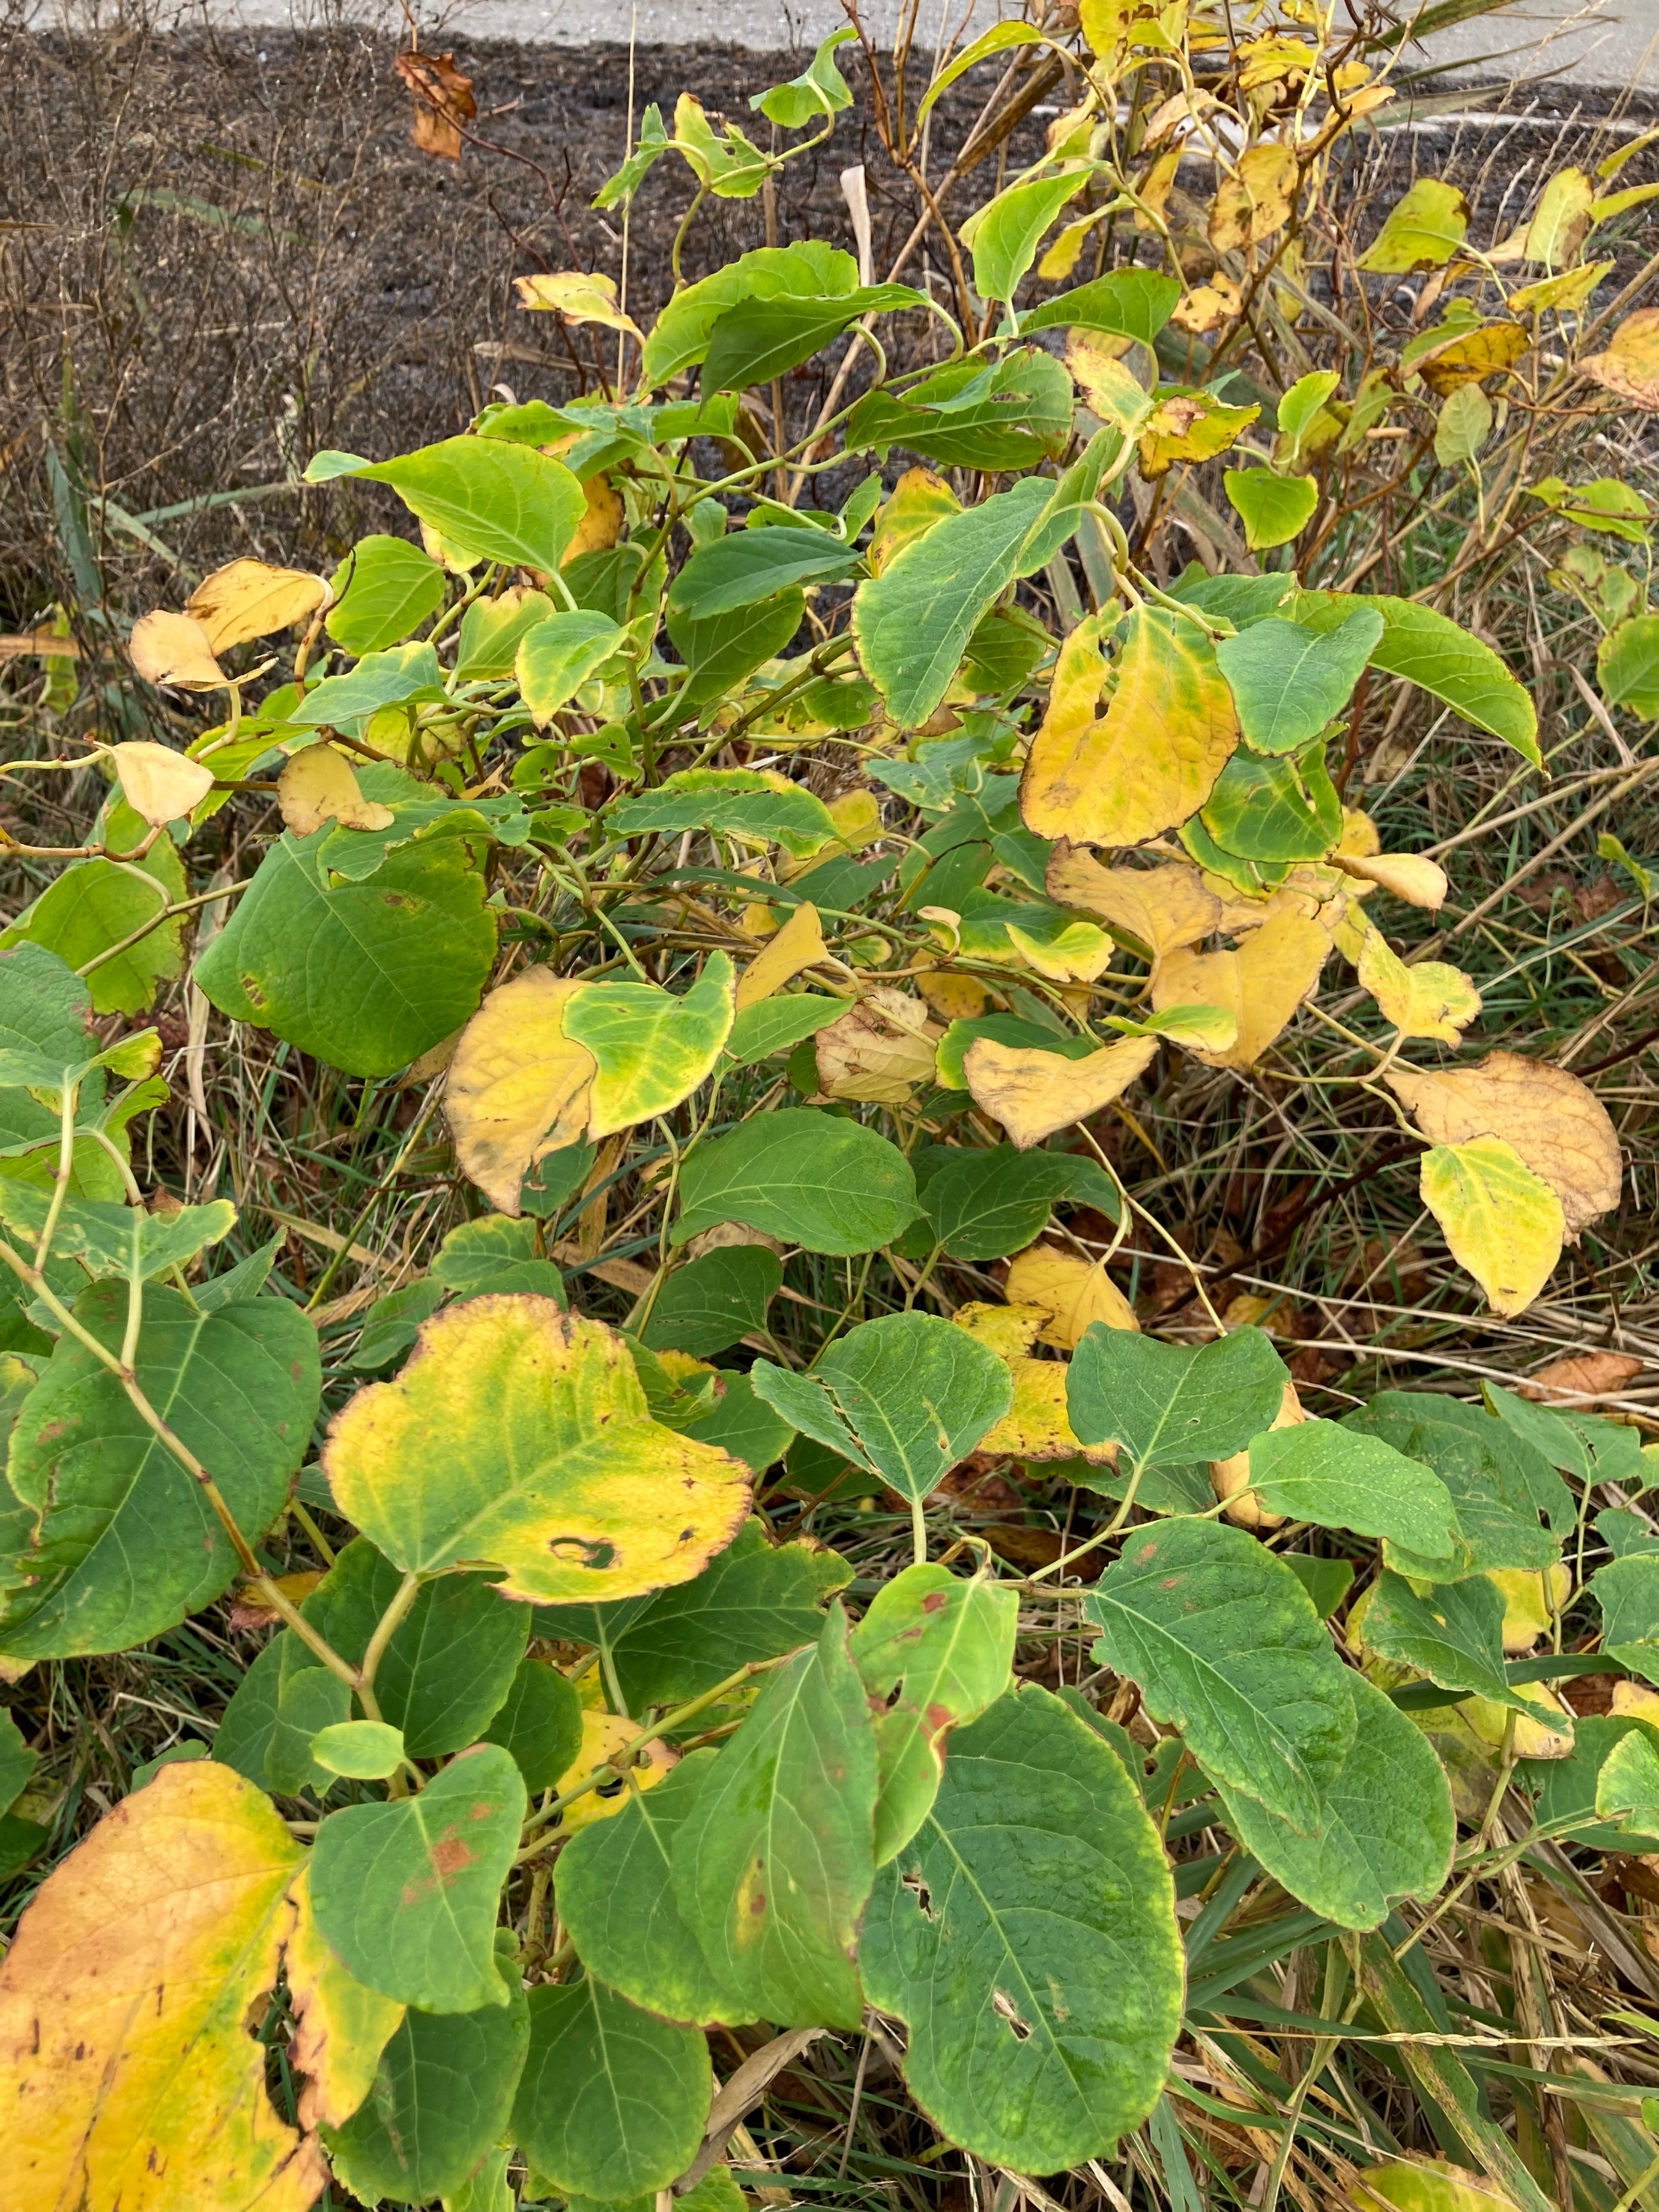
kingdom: Plantae
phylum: Tracheophyta
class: Magnoliopsida
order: Caryophyllales
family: Polygonaceae
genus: Reynoutria
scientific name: Reynoutria sachalinensis
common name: Kæmpe-pileurt
